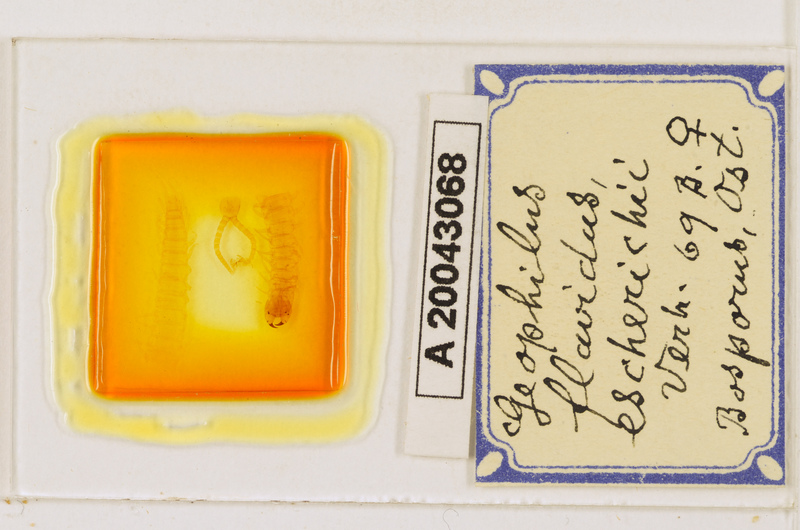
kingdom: Animalia
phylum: Arthropoda
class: Chilopoda
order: Geophilomorpha
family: Geophilidae
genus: Clinopodes
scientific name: Clinopodes flavidus
